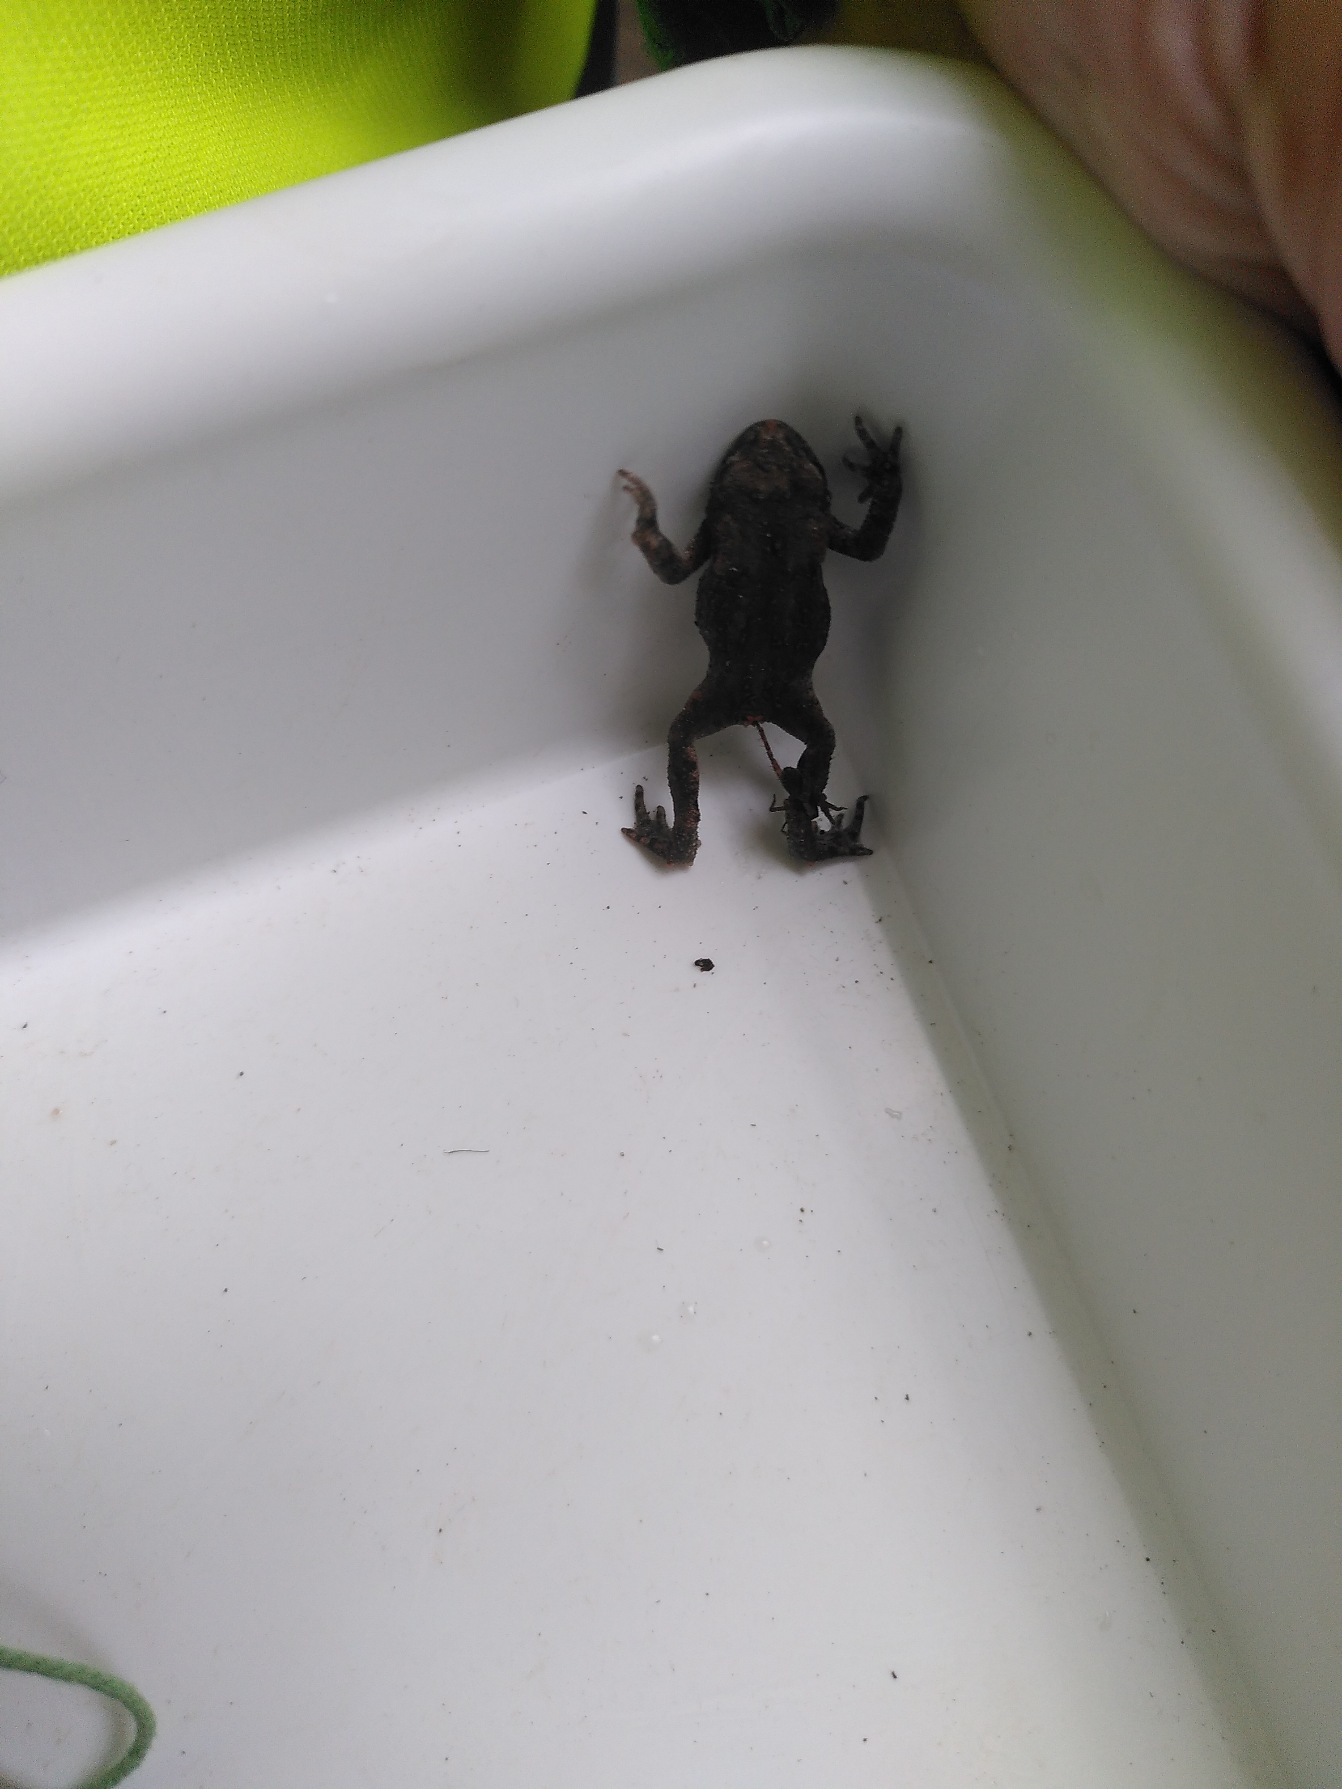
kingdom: Animalia
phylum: Chordata
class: Amphibia
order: Anura
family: Bufonidae
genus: Bufo
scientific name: Bufo bufo
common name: Skrubtudse
